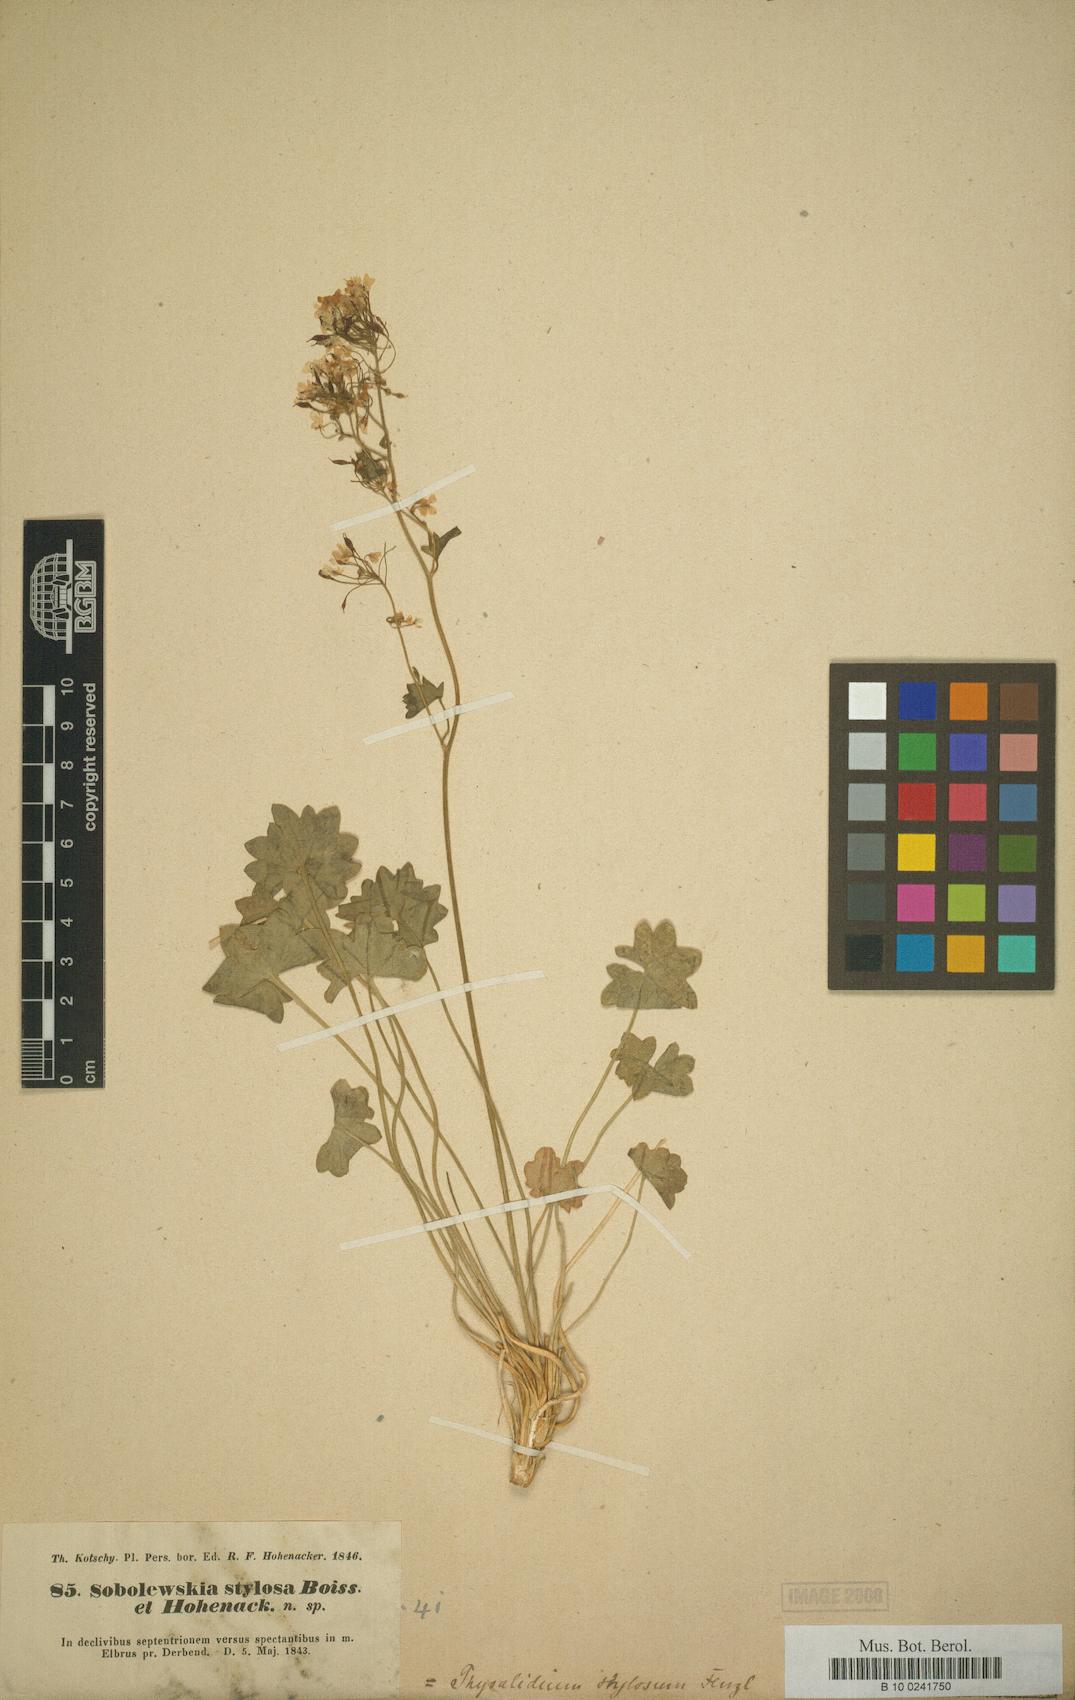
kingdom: Plantae
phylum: Tracheophyta
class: Magnoliopsida
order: Brassicales
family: Brassicaceae
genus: Graellsia
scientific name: Graellsia stylosa
